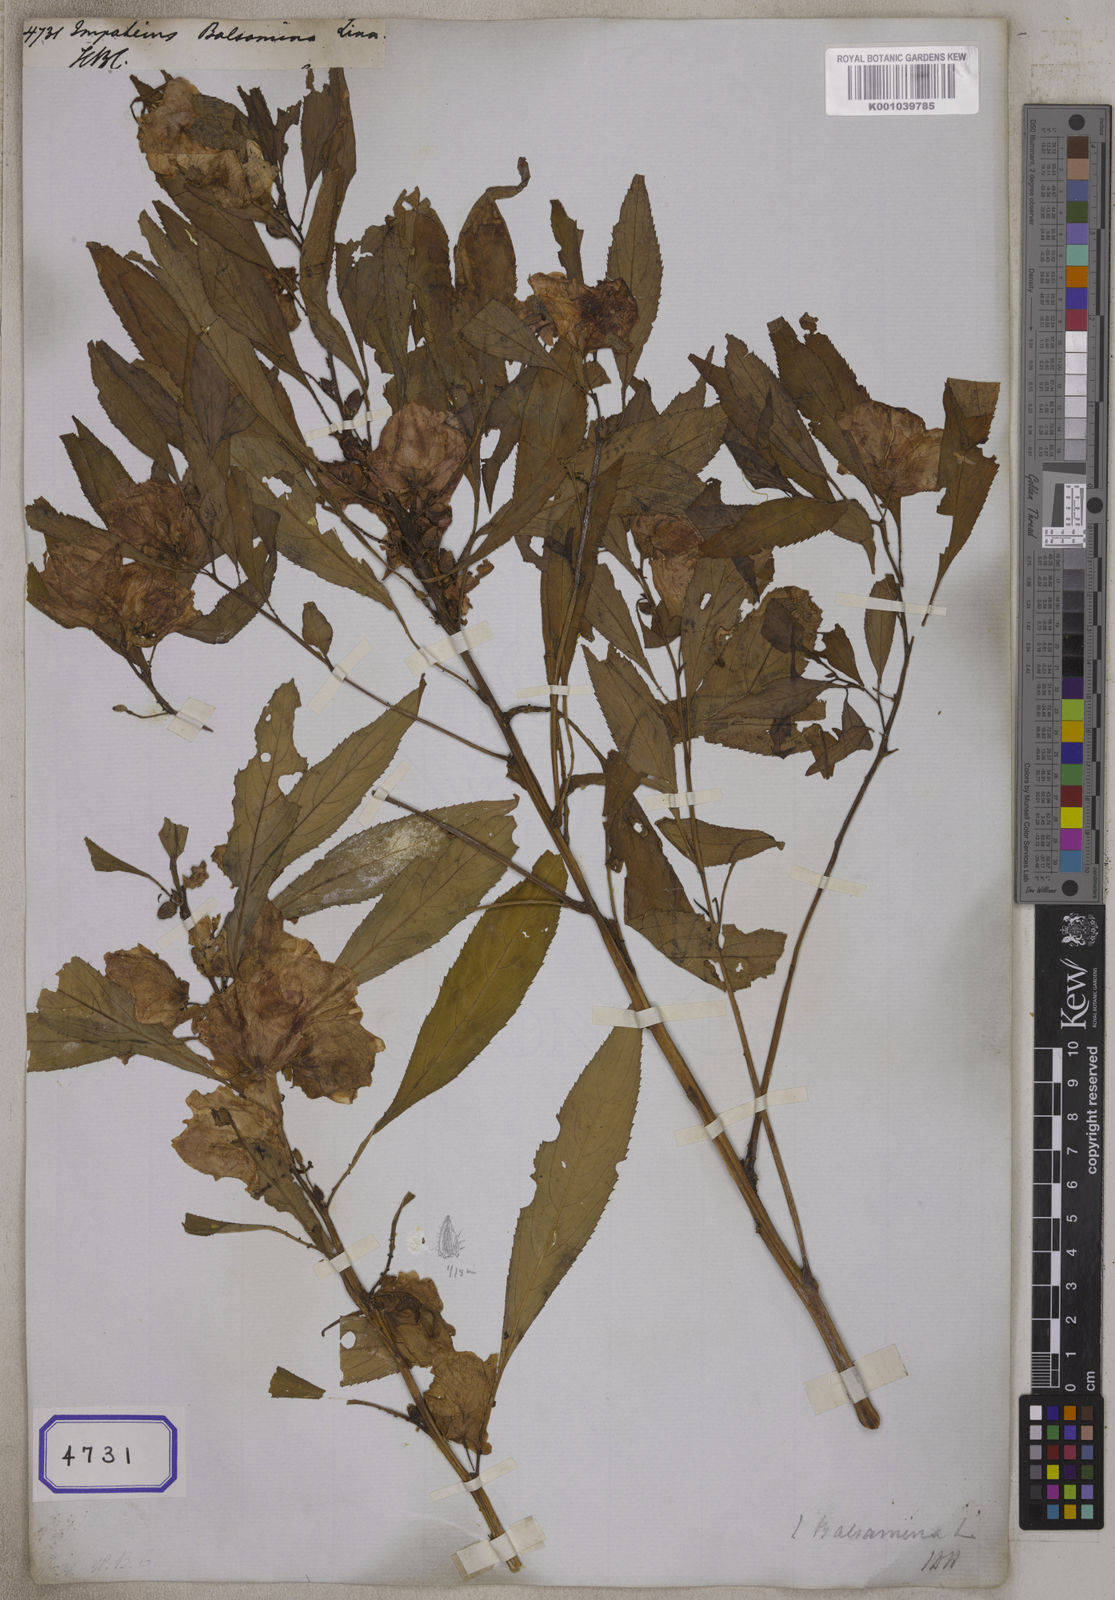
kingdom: Plantae
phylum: Tracheophyta
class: Magnoliopsida
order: Ericales
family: Balsaminaceae
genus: Impatiens
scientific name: Impatiens balsamina
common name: Balsam
